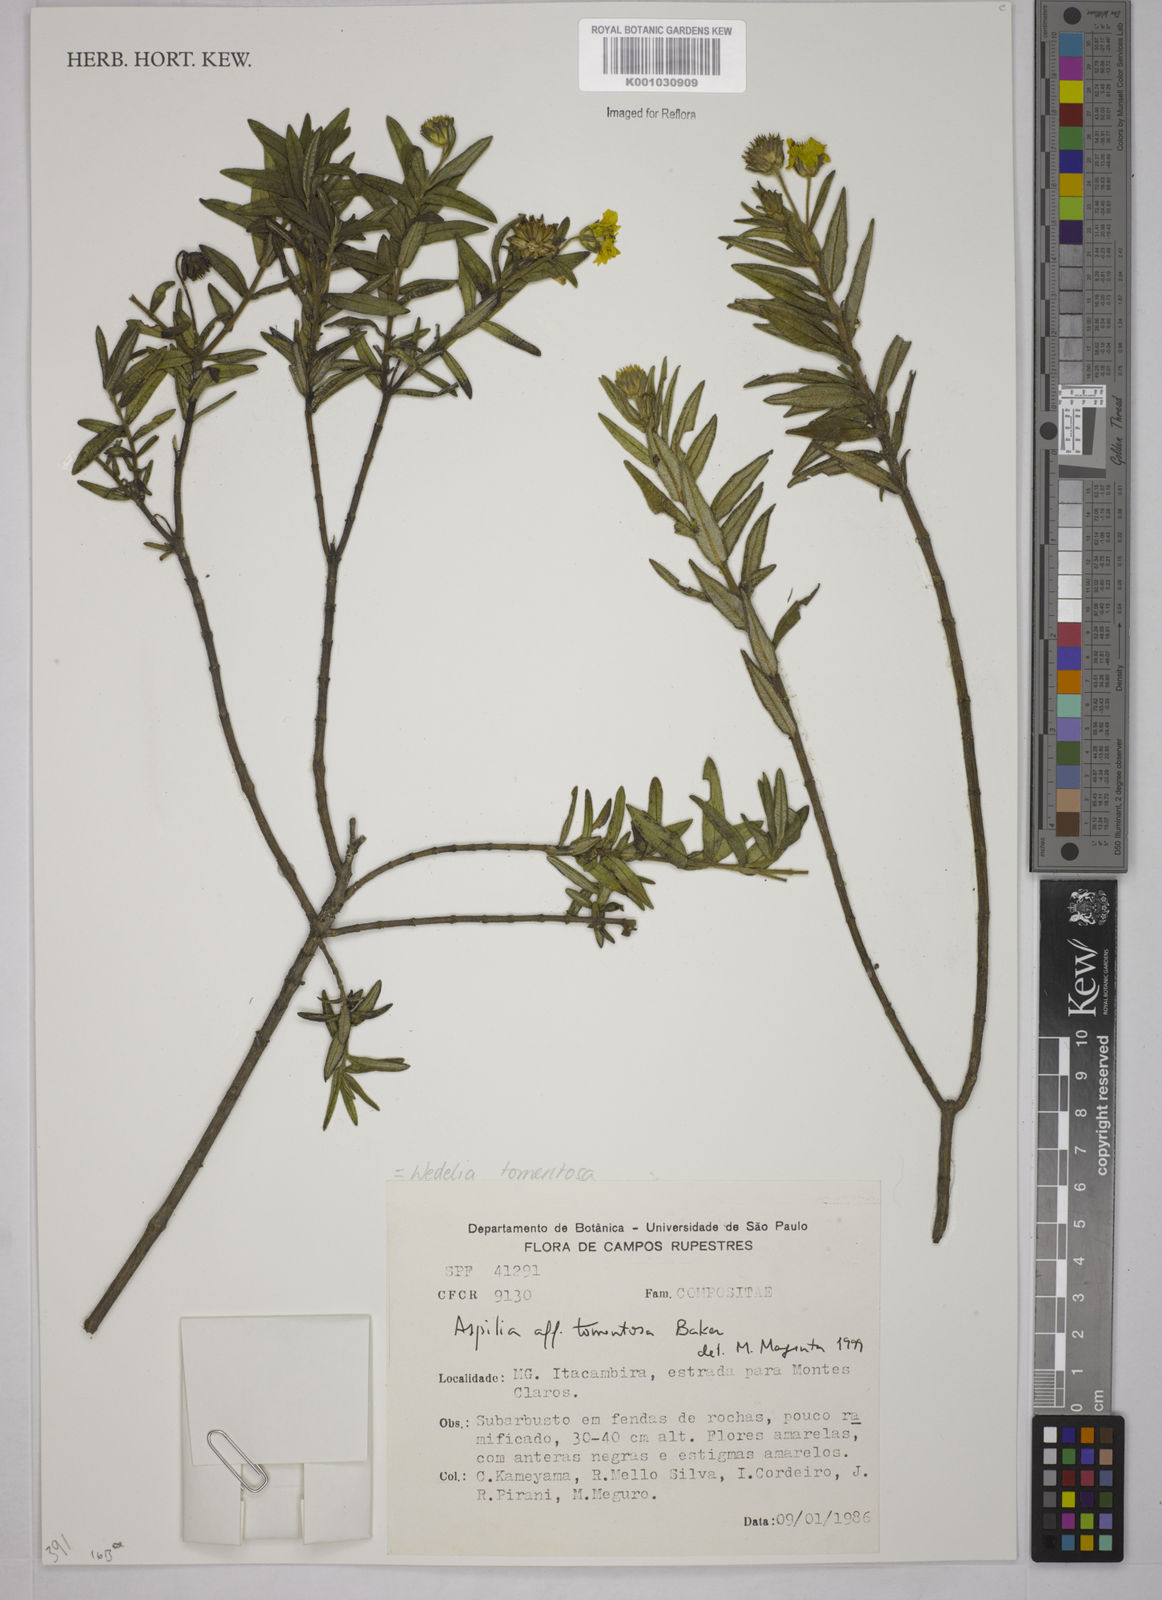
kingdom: Plantae
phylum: Tracheophyta
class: Magnoliopsida
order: Asterales
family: Asteraceae
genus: Wedelia
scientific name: Wedelia tomentosa
